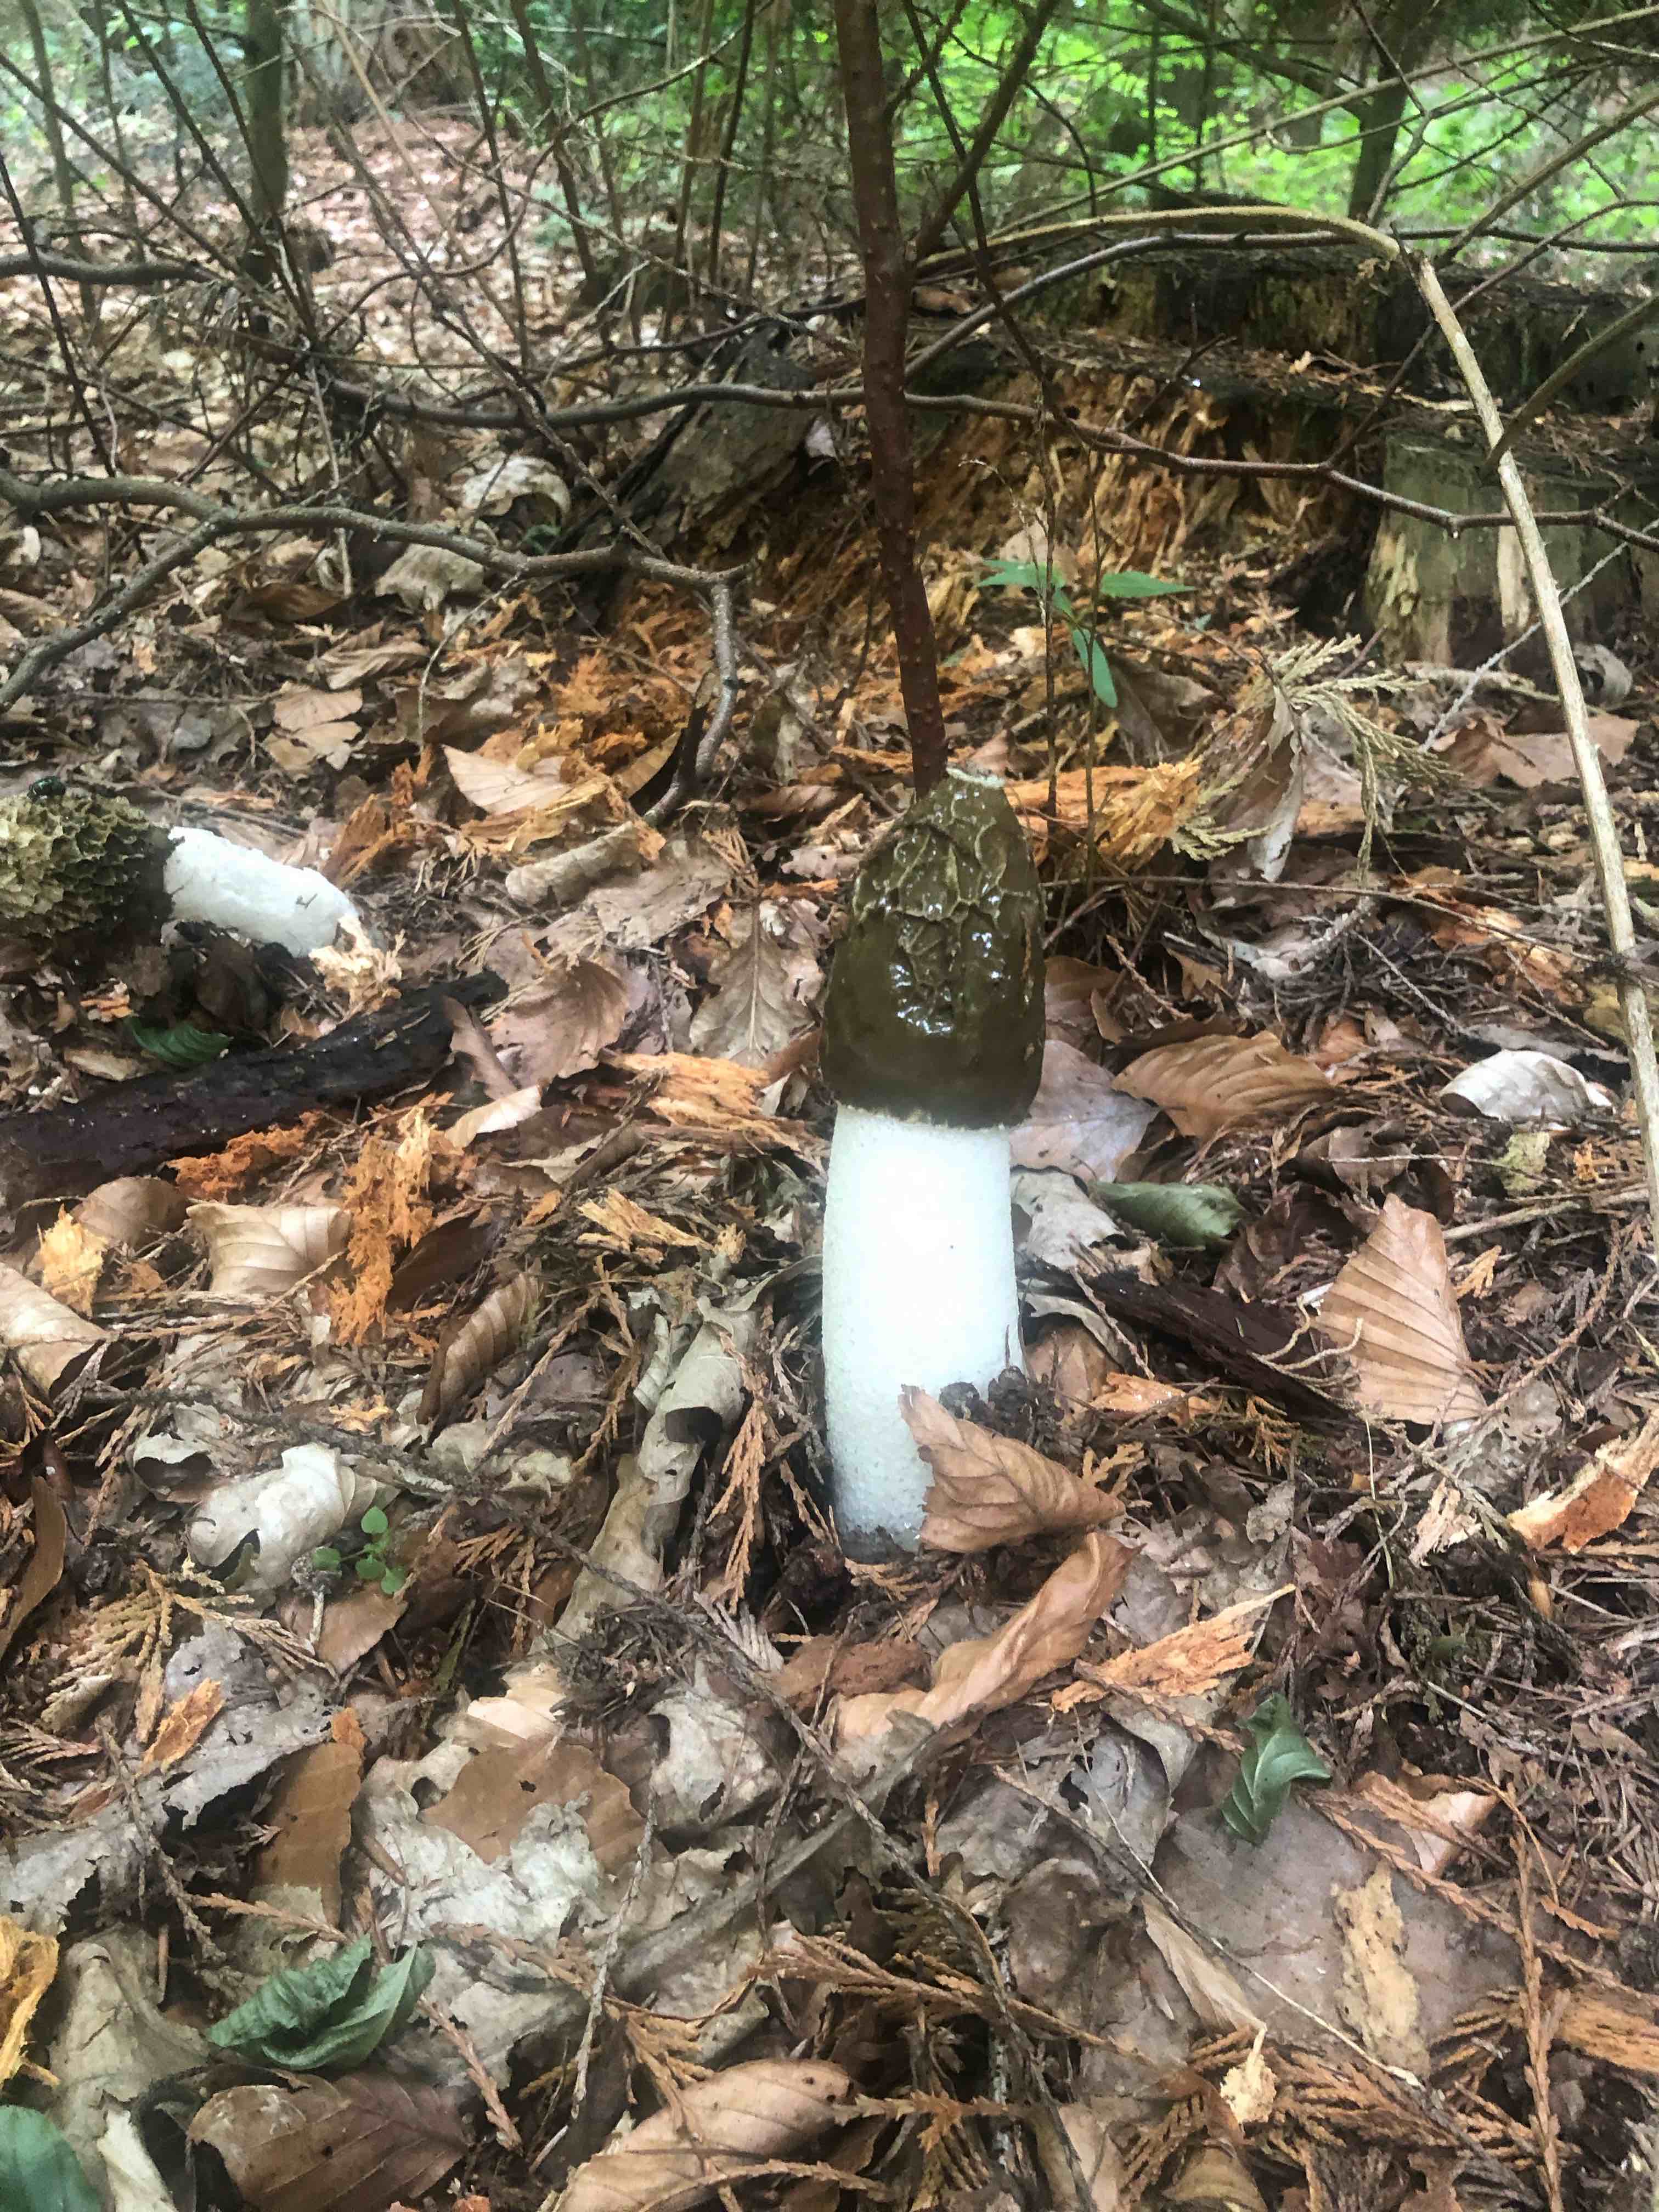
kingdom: Fungi
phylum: Basidiomycota
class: Agaricomycetes
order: Phallales
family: Phallaceae
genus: Phallus
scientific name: Phallus impudicus
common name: almindelig stinksvamp
